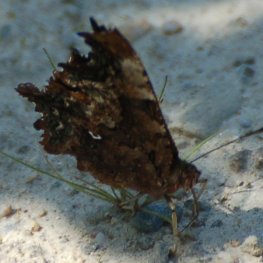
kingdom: Animalia
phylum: Arthropoda
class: Insecta
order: Lepidoptera
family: Nymphalidae
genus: Polygonia
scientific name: Polygonia faunus
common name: Green Comma
